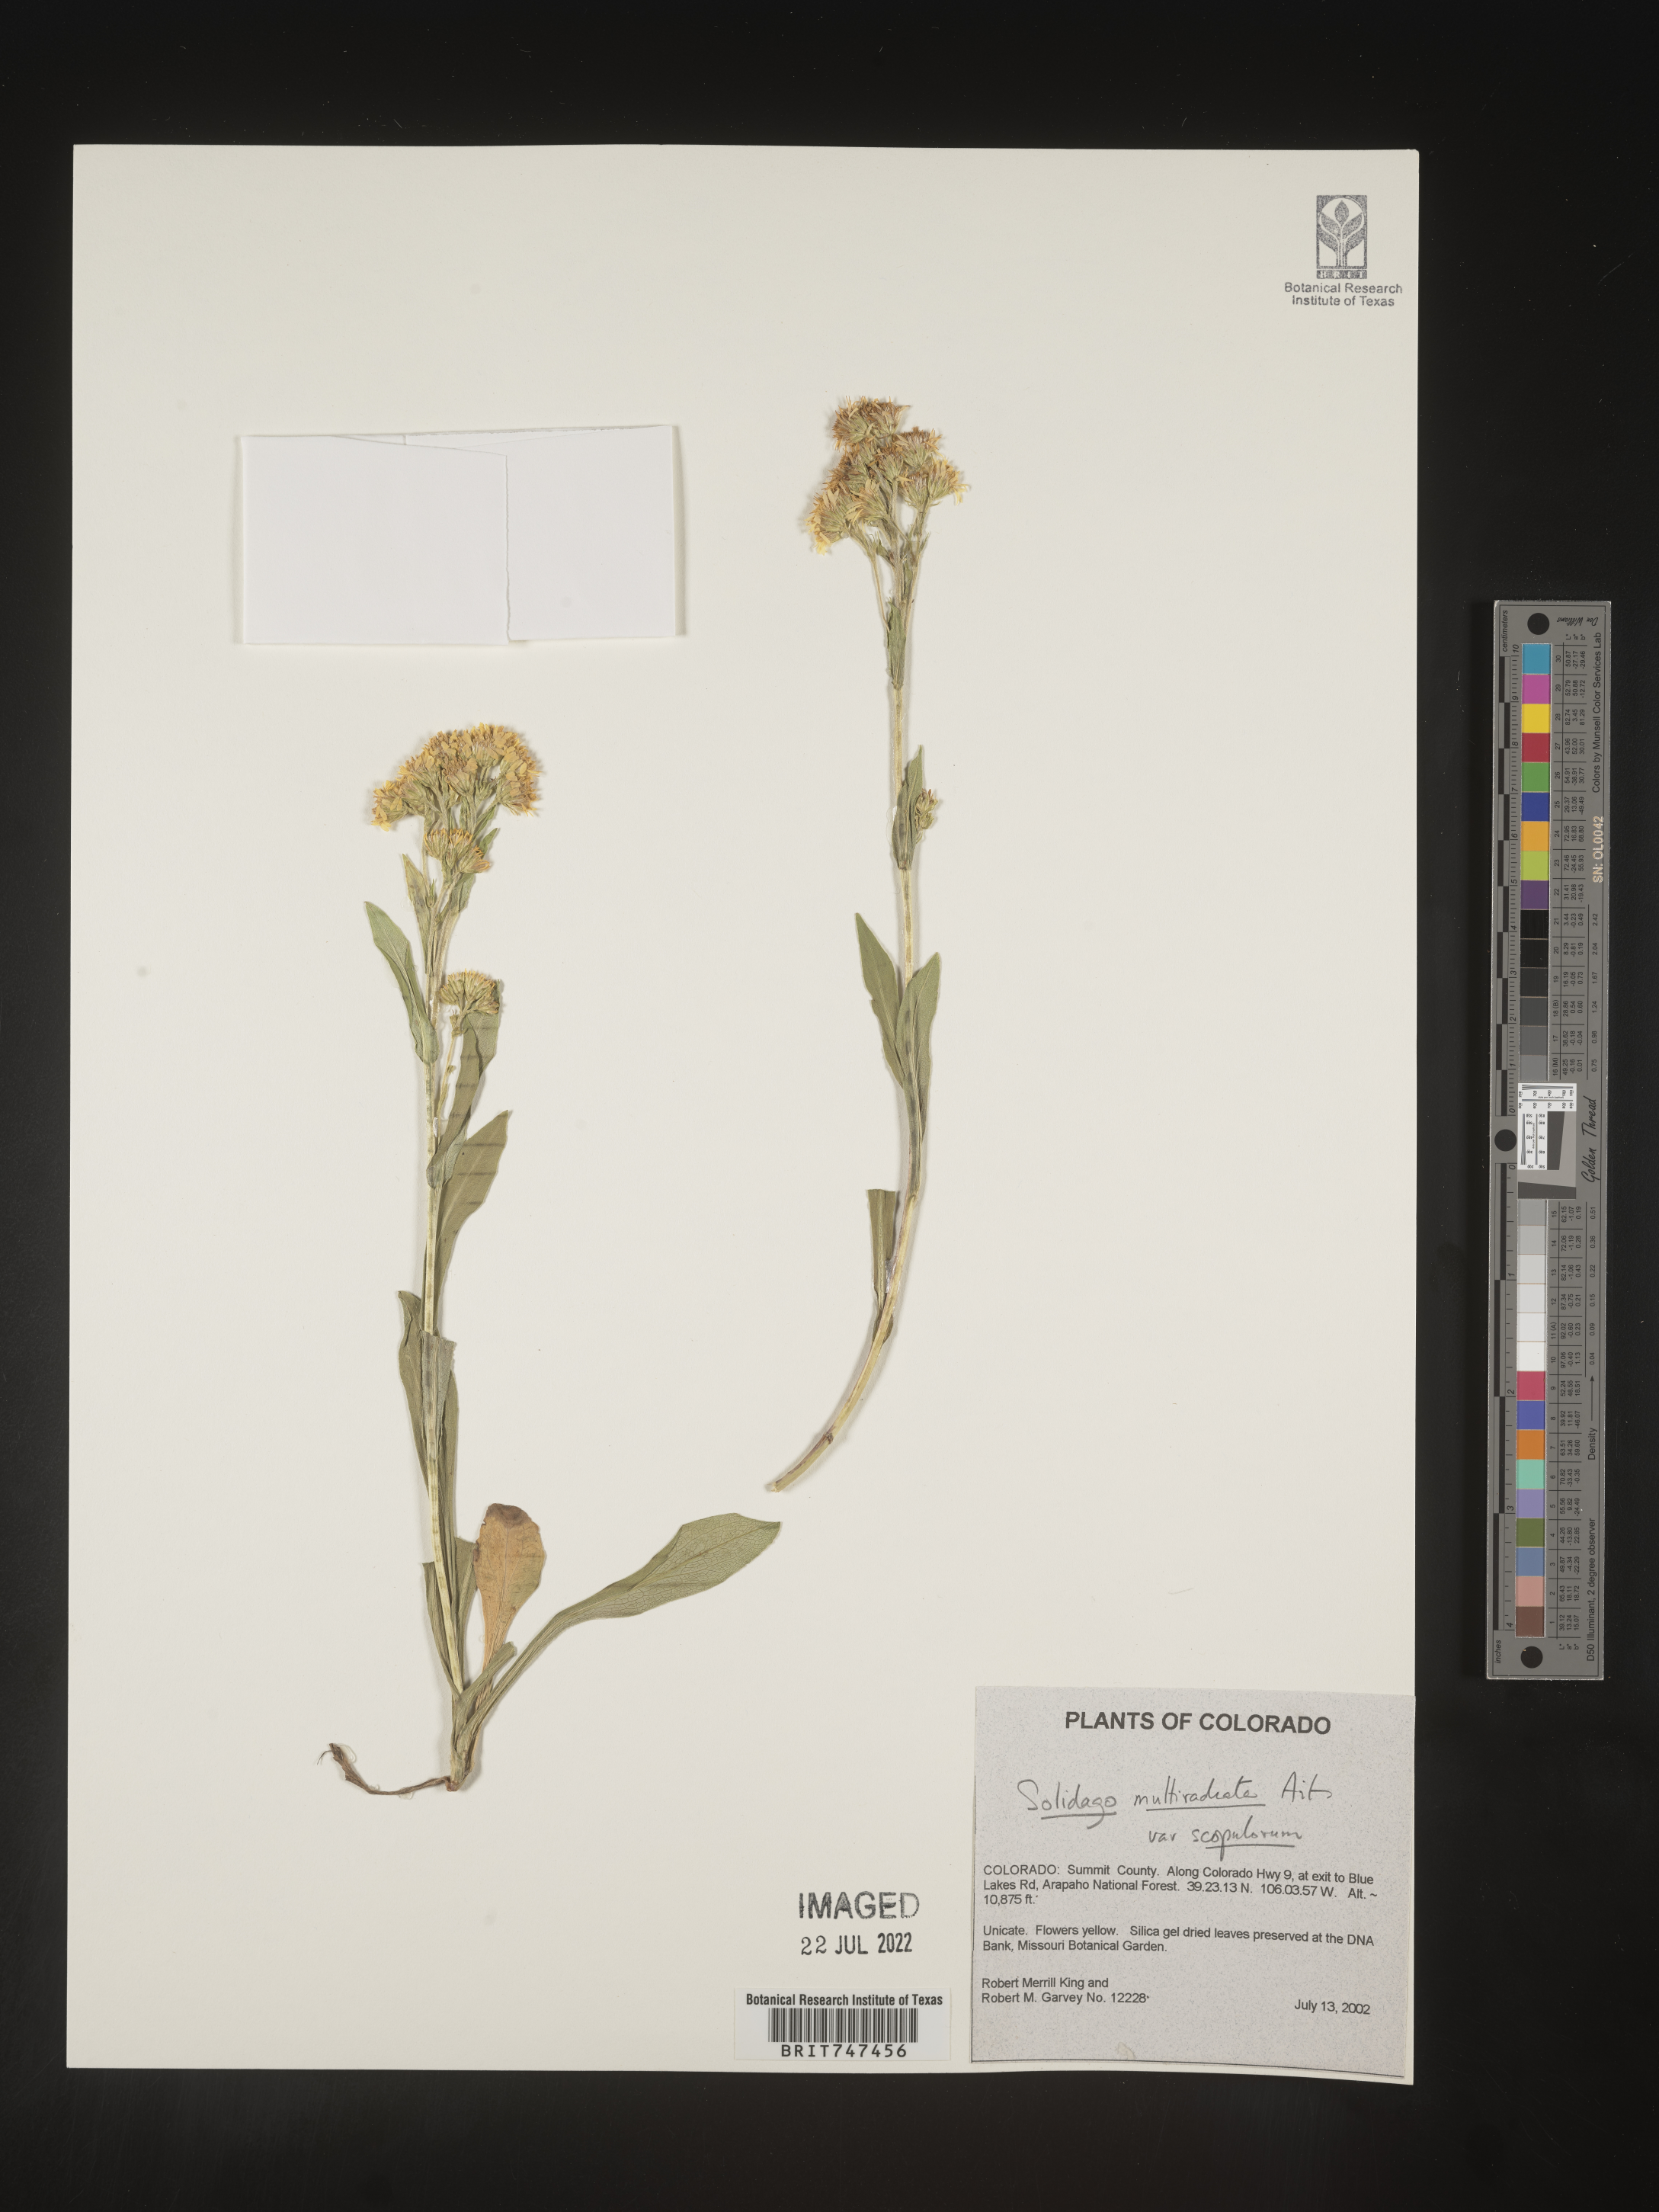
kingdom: Plantae
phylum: Tracheophyta
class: Magnoliopsida
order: Asterales
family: Asteraceae
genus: Solidago
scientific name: Solidago multiradiata
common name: Northern goldenrod
